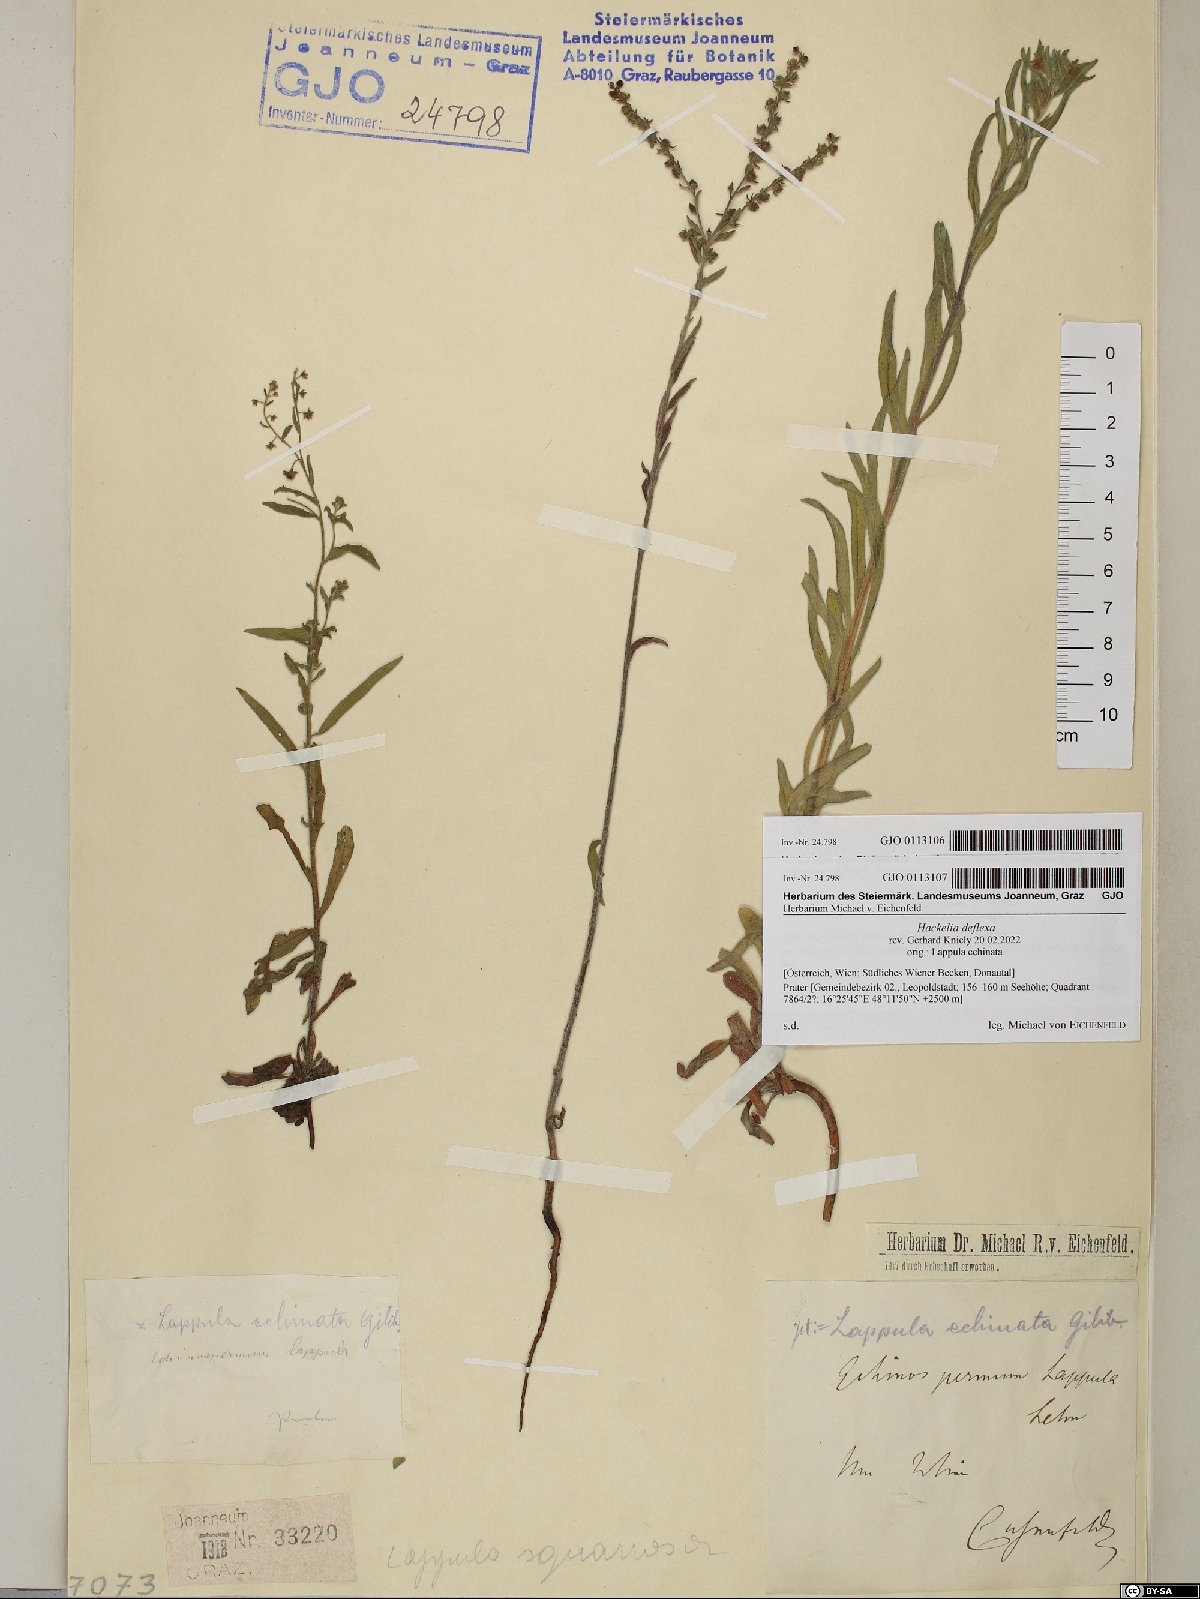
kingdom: Plantae
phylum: Tracheophyta
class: Magnoliopsida
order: Boraginales
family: Boraginaceae
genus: Hackelia
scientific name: Hackelia deflexa
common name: Nodding stickseed
